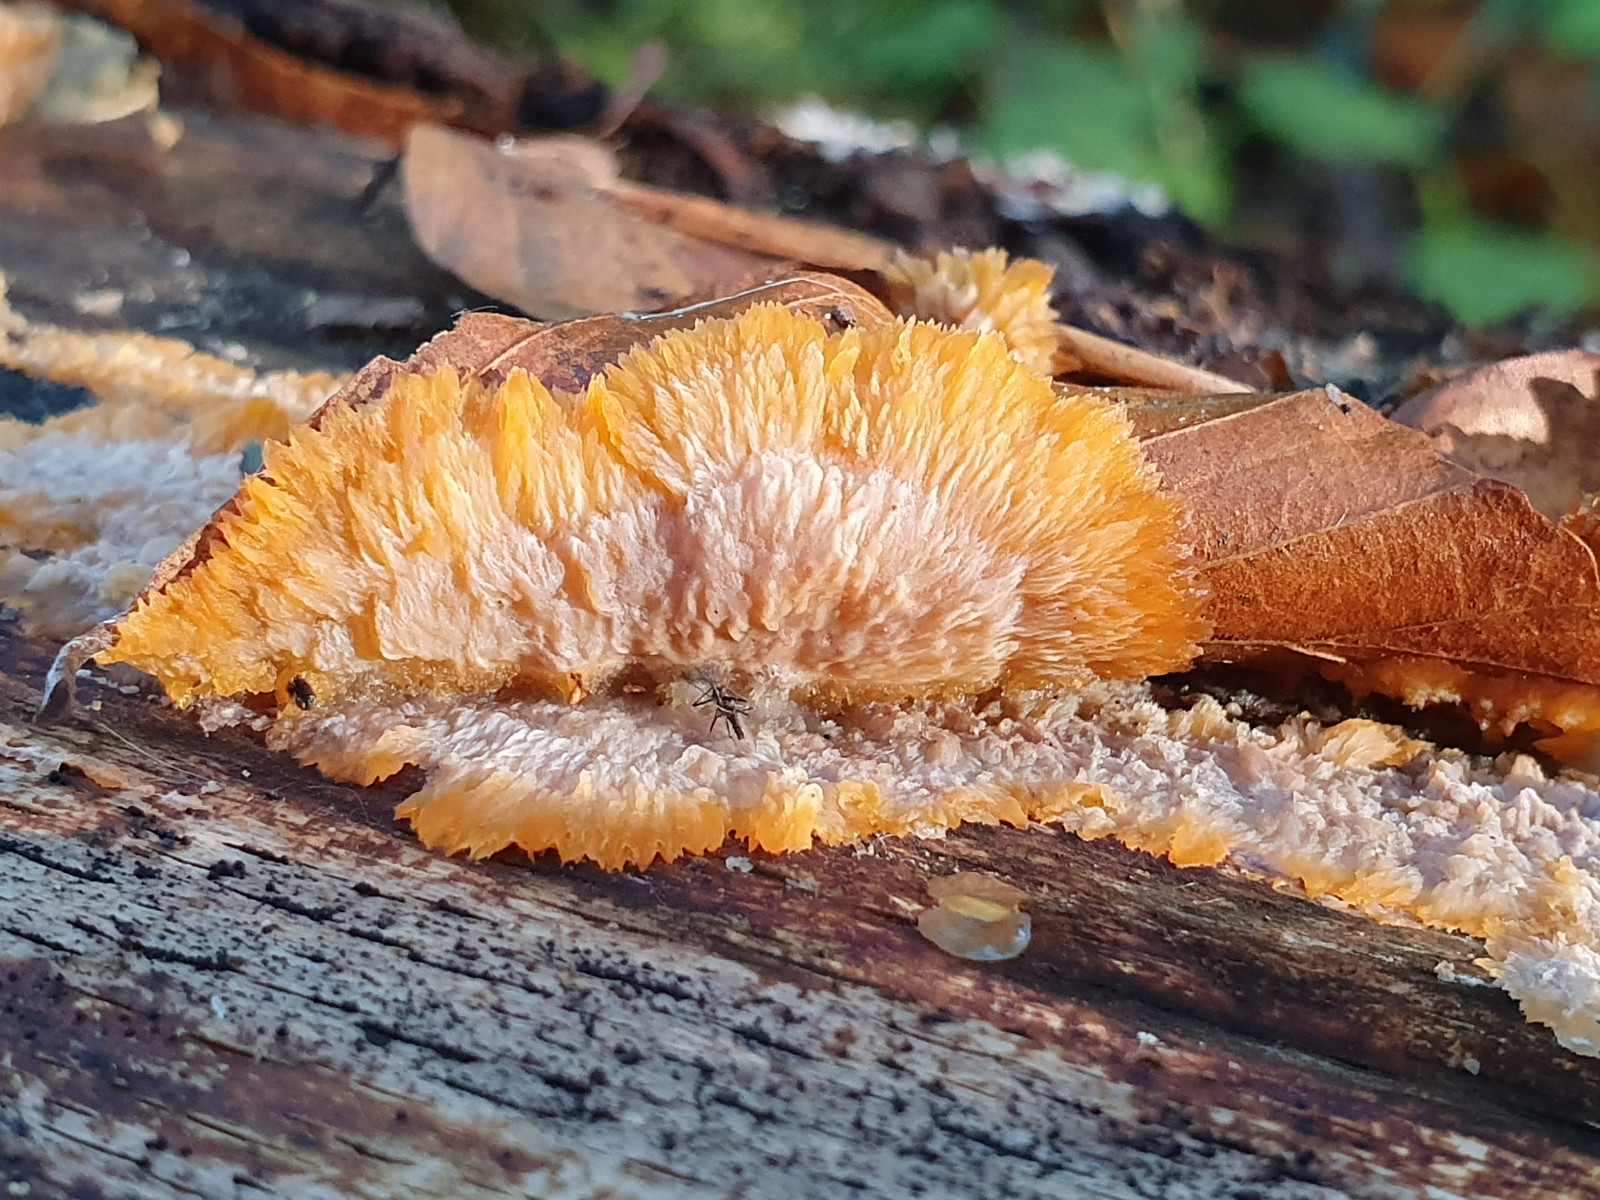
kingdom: Fungi
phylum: Basidiomycota
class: Agaricomycetes
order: Polyporales
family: Meruliaceae
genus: Phlebia
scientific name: Phlebia radiata
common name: stråle-åresvamp
